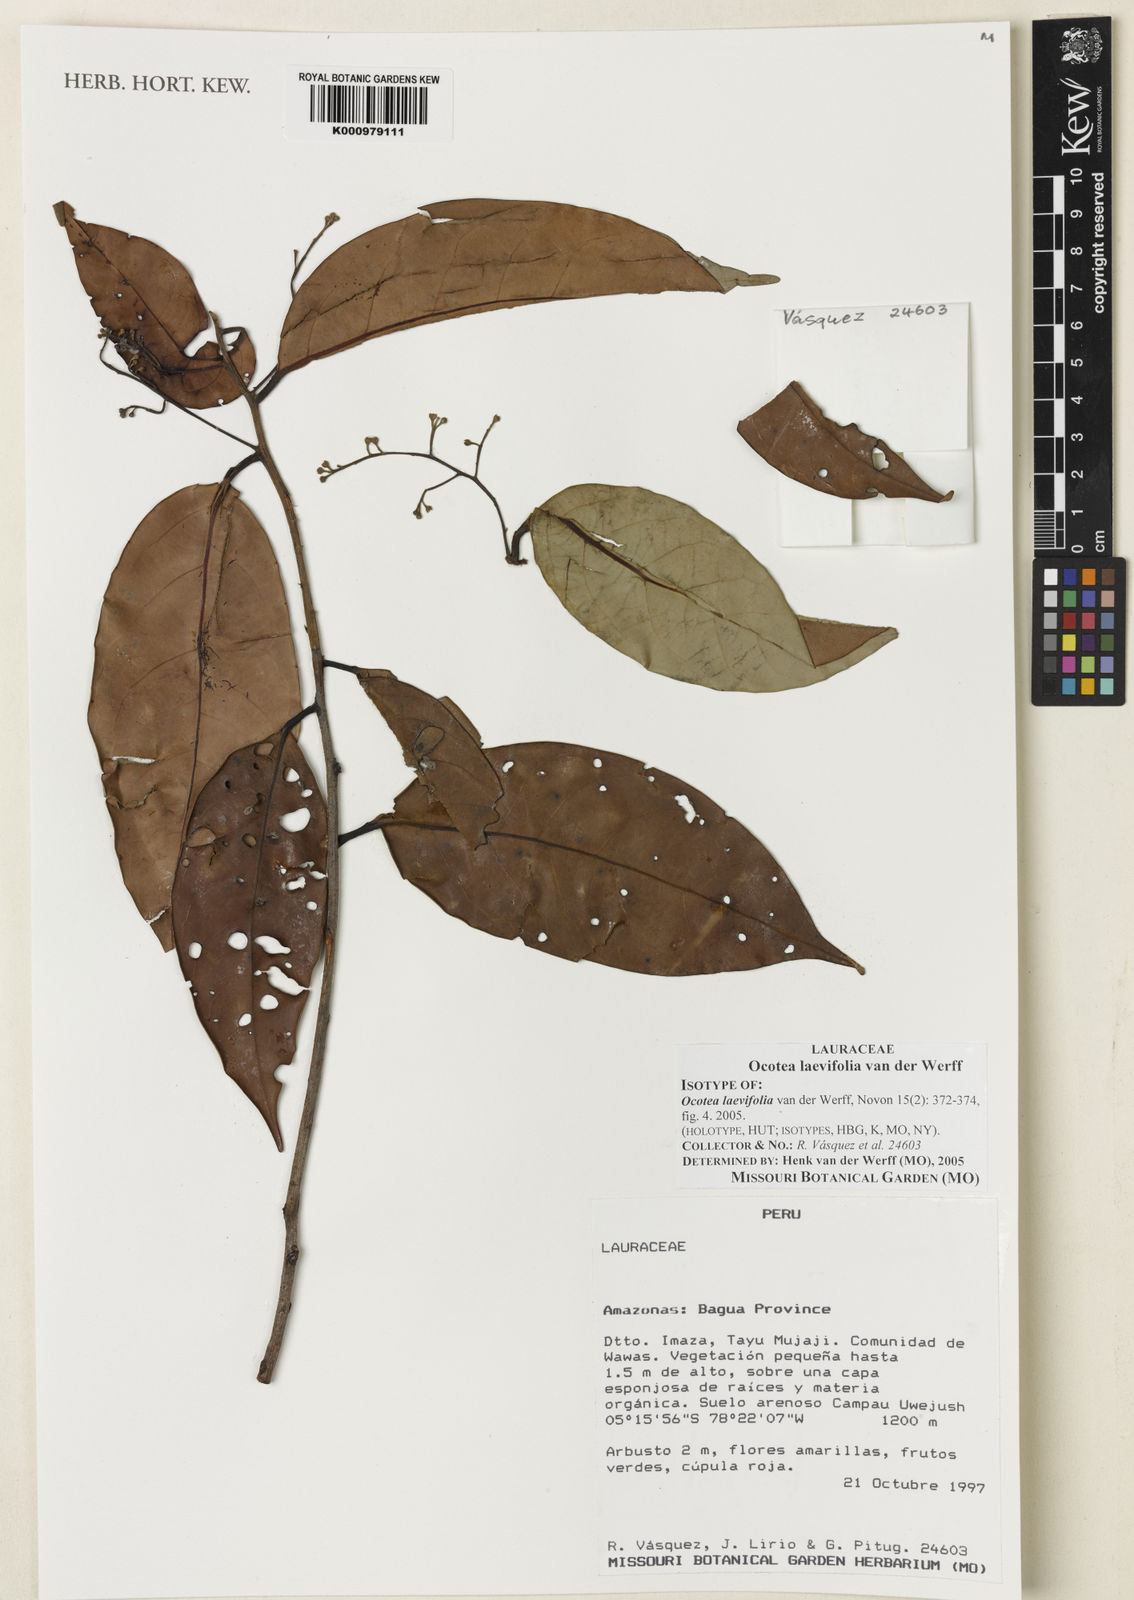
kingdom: Plantae
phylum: Tracheophyta
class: Magnoliopsida
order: Laurales
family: Lauraceae
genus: Ocotea
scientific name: Ocotea laevifolia
